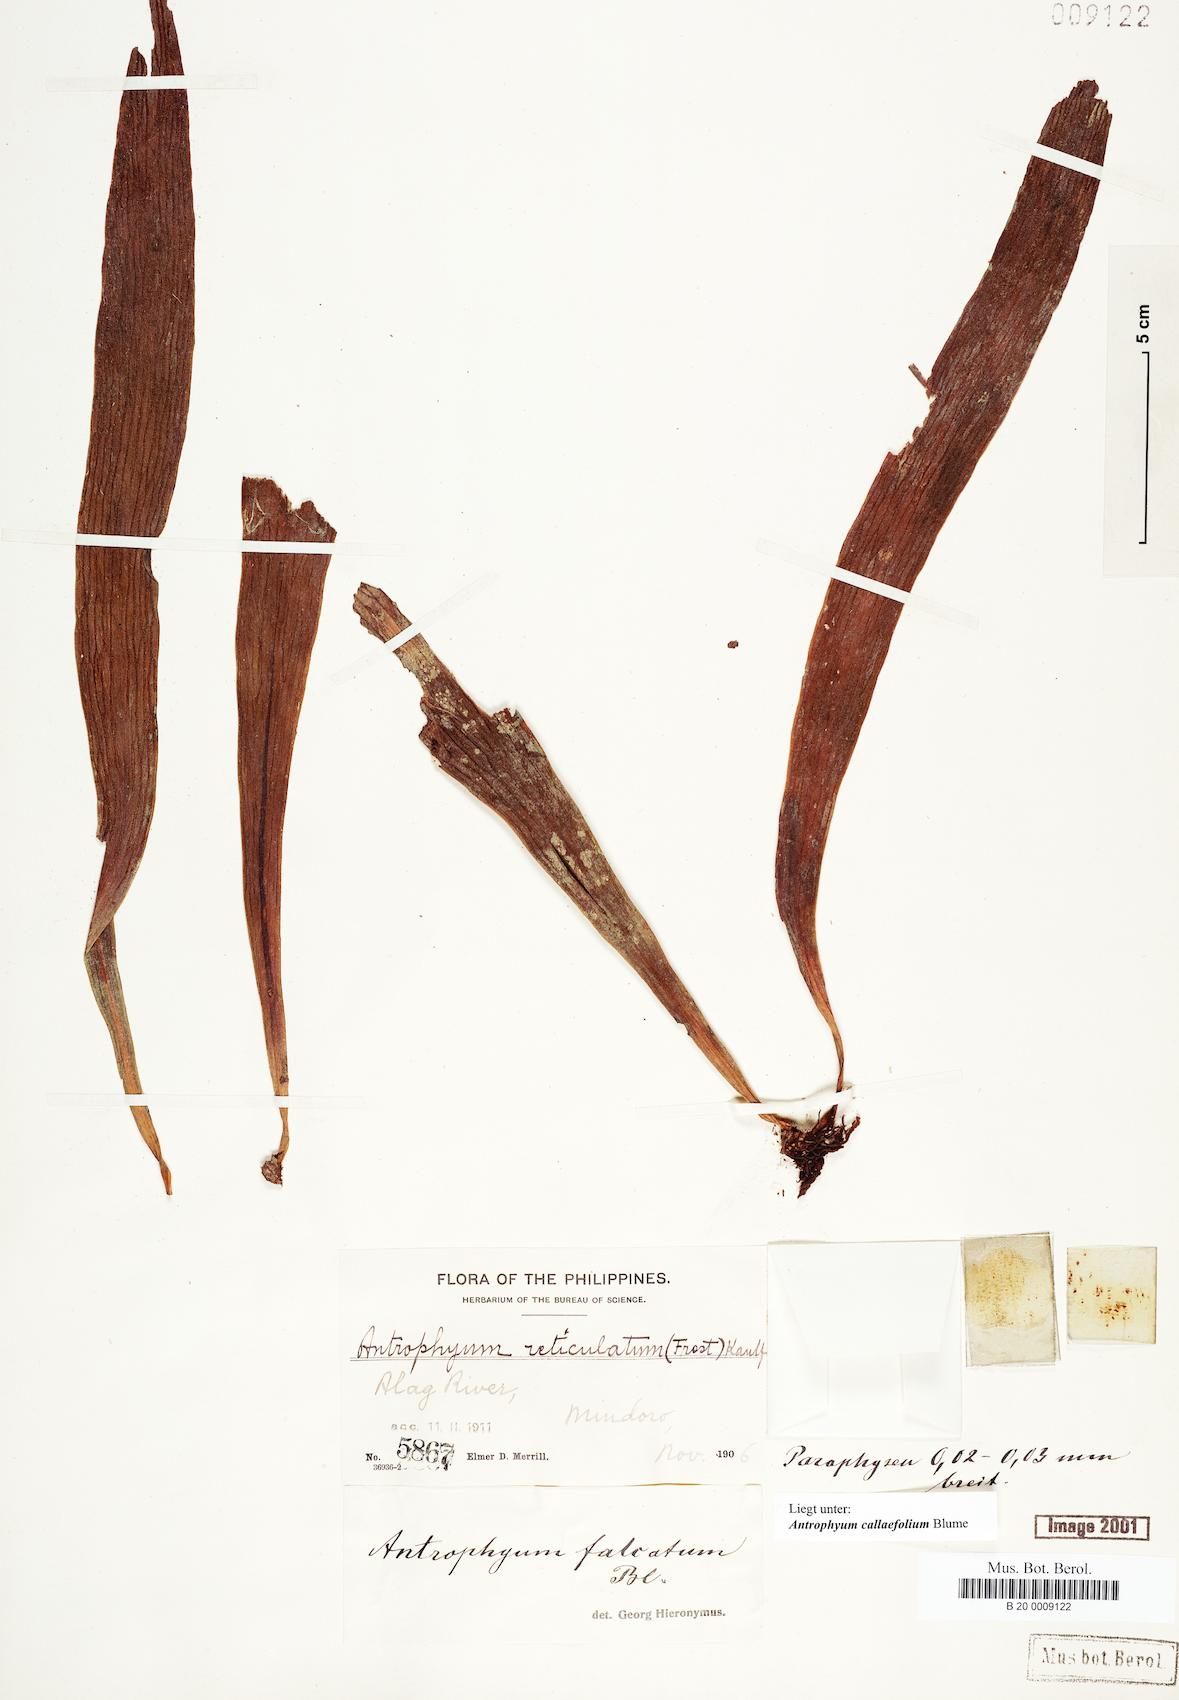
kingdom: Plantae
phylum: Tracheophyta
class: Polypodiopsida
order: Polypodiales
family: Pteridaceae
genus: Antrophyum
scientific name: Antrophyum callifolium
